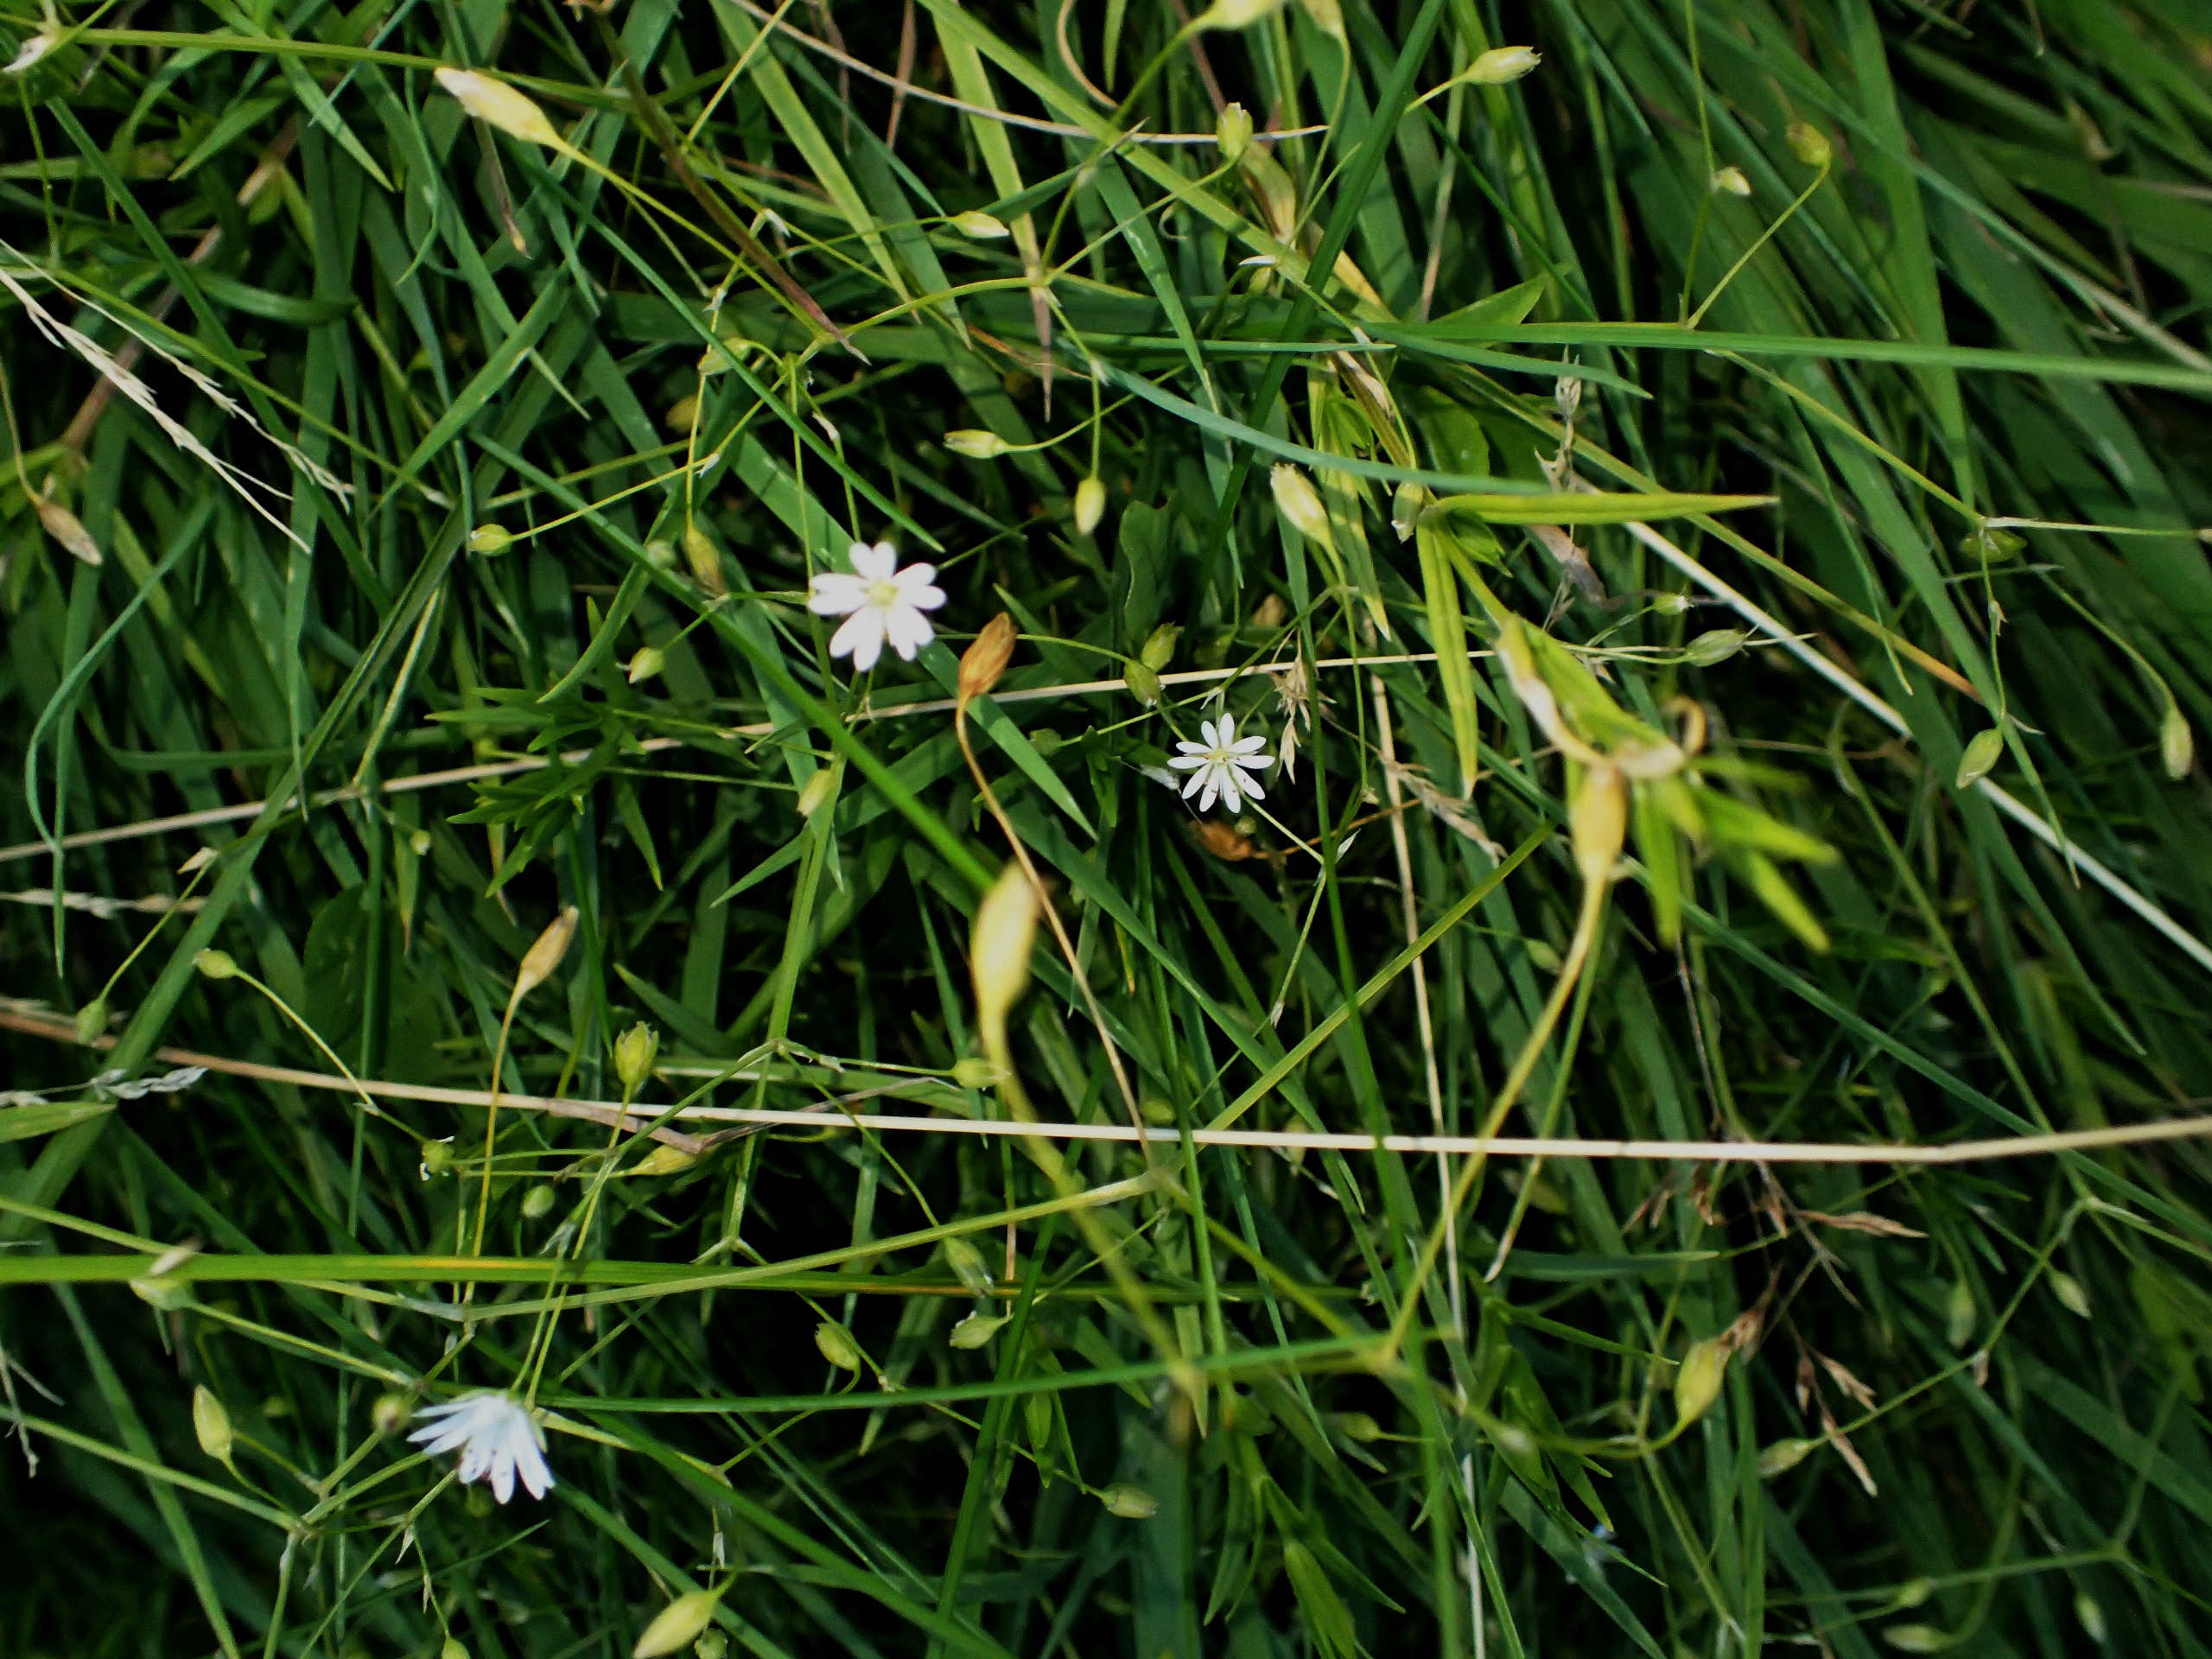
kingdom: Plantae
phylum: Tracheophyta
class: Magnoliopsida
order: Caryophyllales
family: Caryophyllaceae
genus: Stellaria
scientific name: Stellaria graminea
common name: Græsbladet fladstjerne
